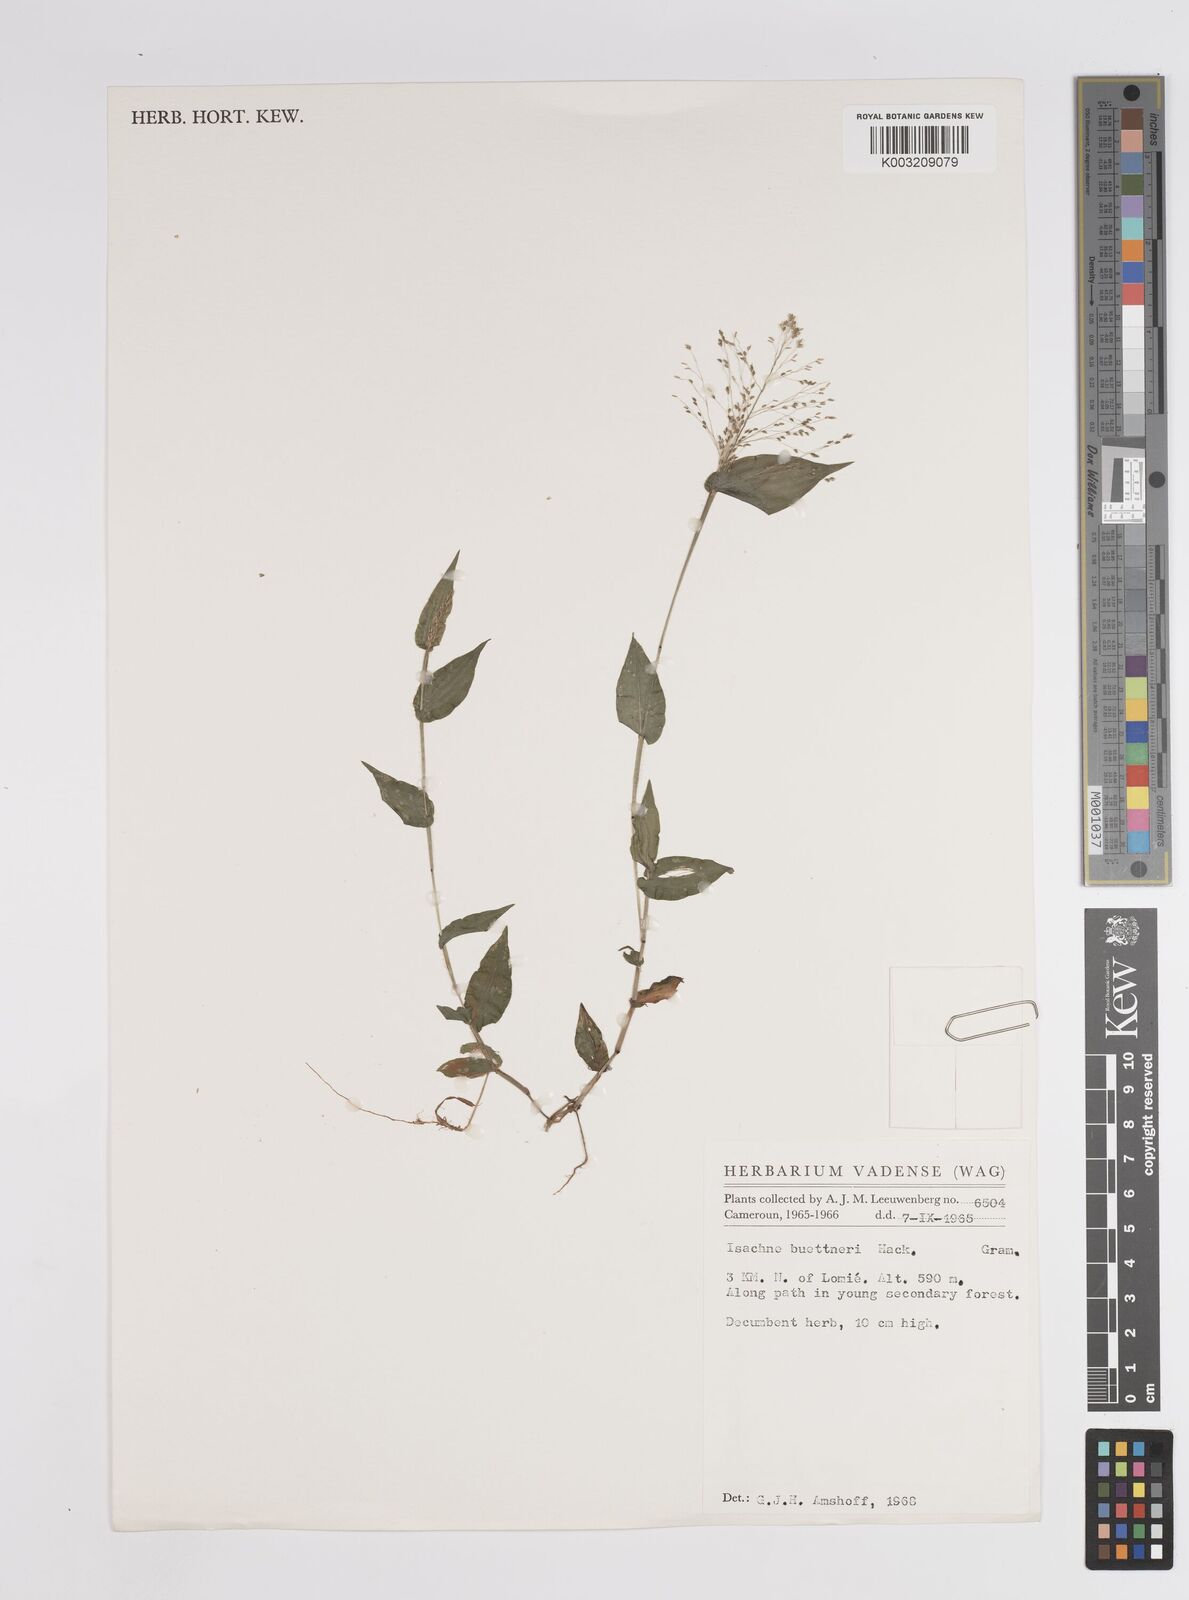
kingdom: Plantae
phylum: Tracheophyta
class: Liliopsida
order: Poales
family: Poaceae
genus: Panicum
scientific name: Panicum brevifolium
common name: Shortleaf panic grass
